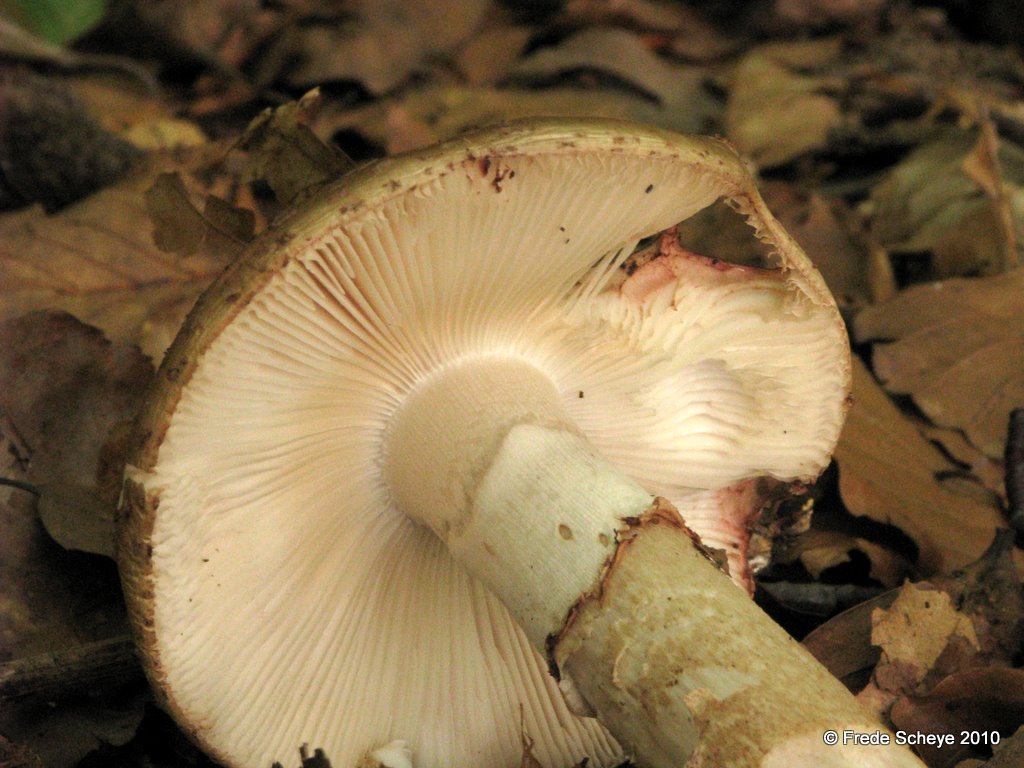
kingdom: Fungi
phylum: Basidiomycota
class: Agaricomycetes
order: Agaricales
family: Amanitaceae
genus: Amanita
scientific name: Amanita rubescens
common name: rødmende fluesvamp
